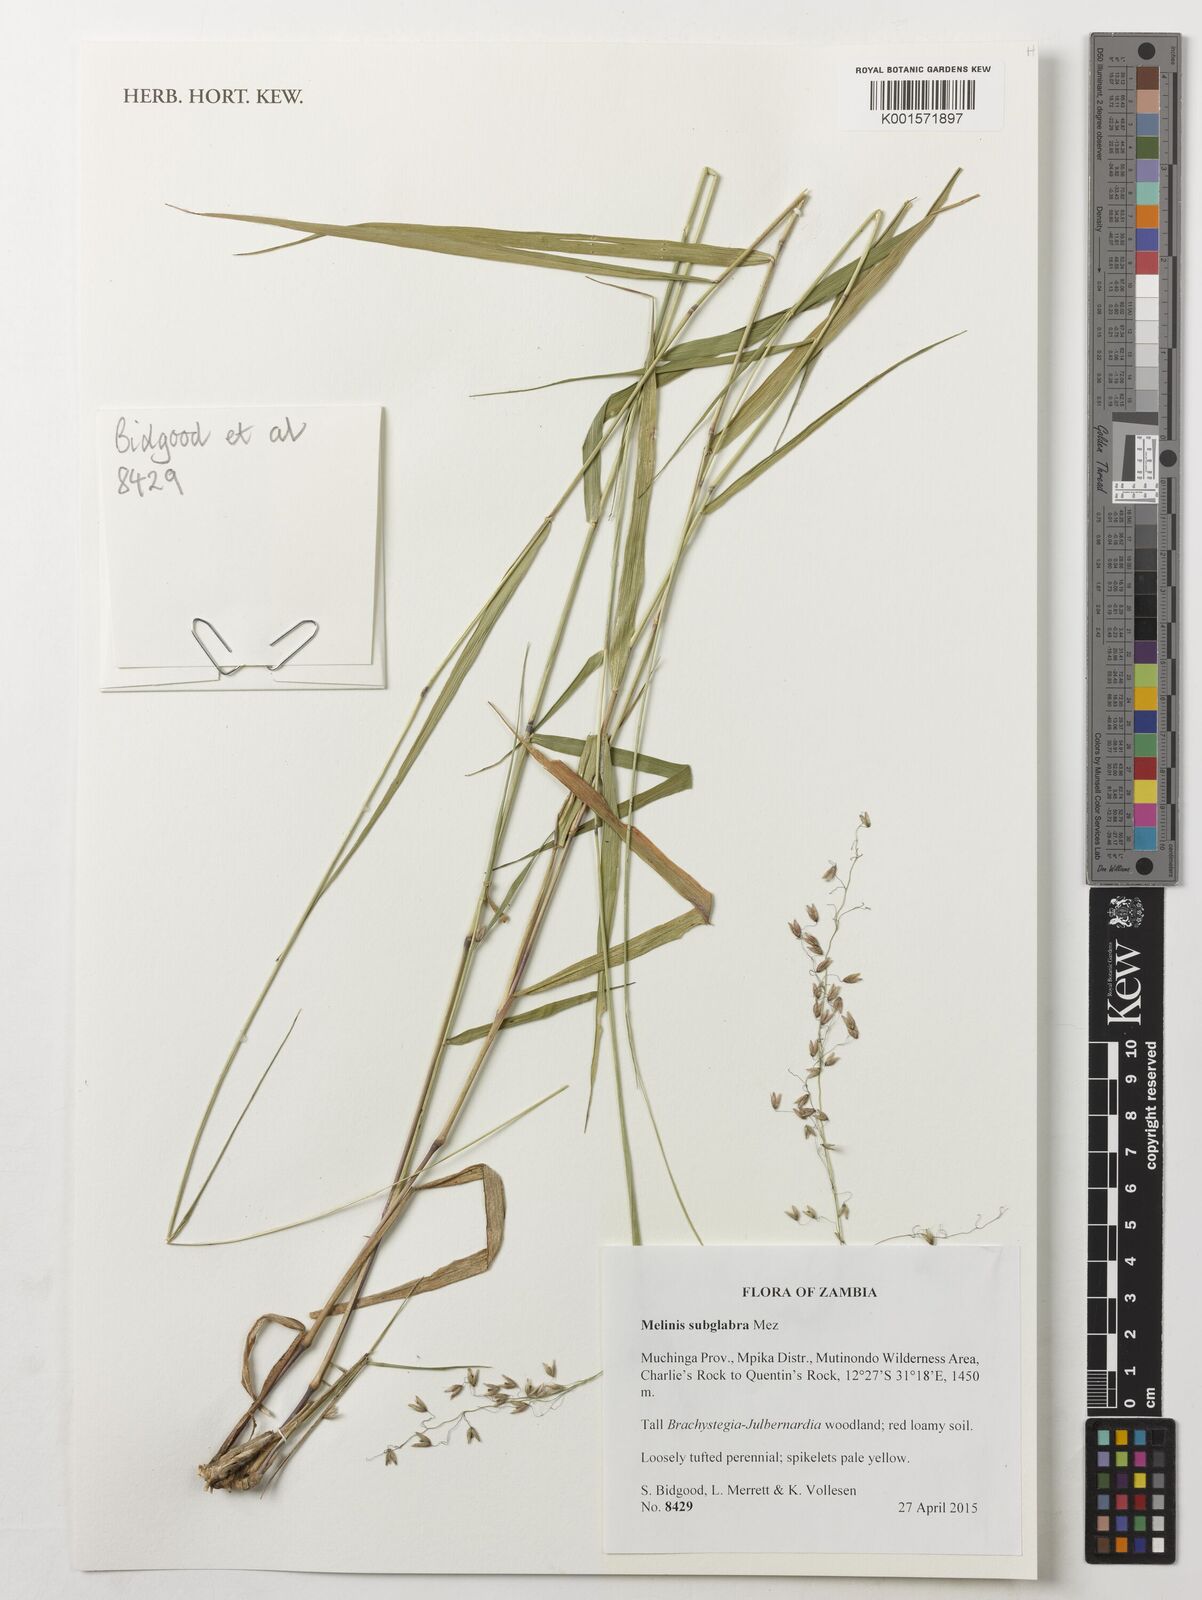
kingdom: Plantae
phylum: Tracheophyta
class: Liliopsida
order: Poales
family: Poaceae
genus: Melinis
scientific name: Melinis subglabra
